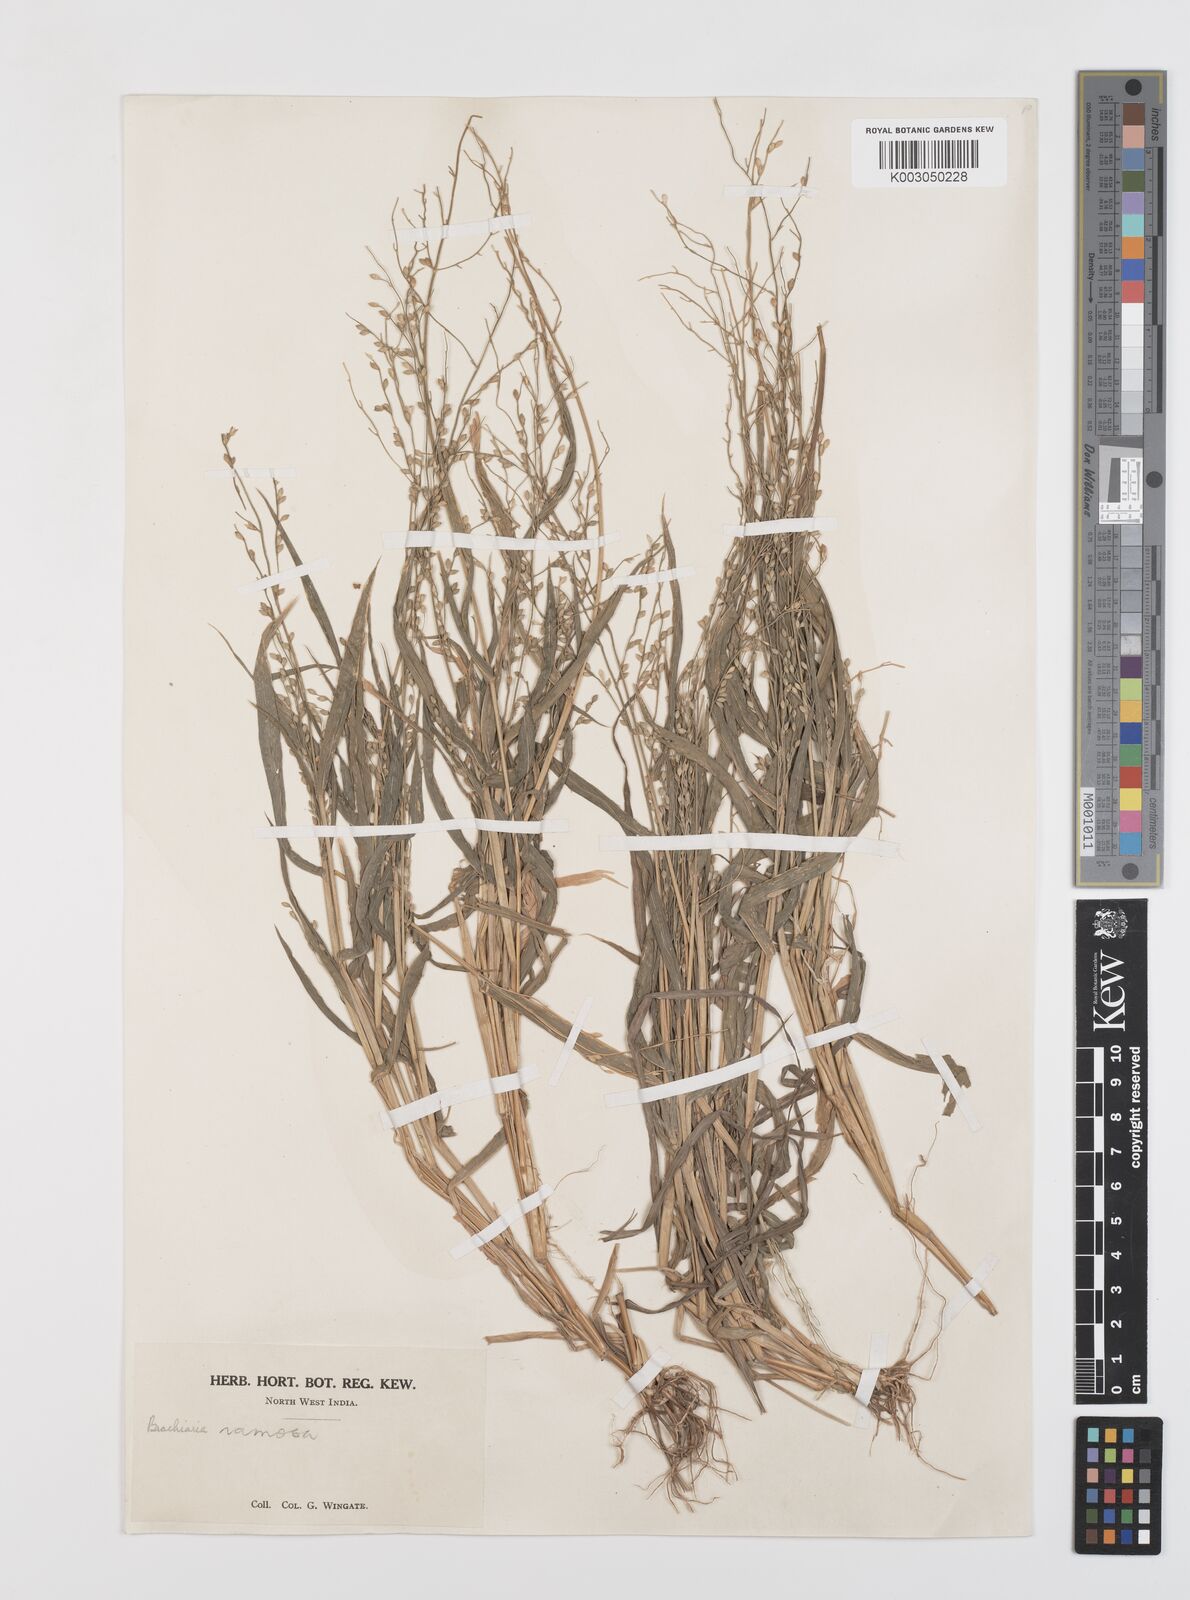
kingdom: Plantae
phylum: Tracheophyta
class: Liliopsida
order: Poales
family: Poaceae
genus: Urochloa
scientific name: Urochloa ramosa
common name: Browntop millet
